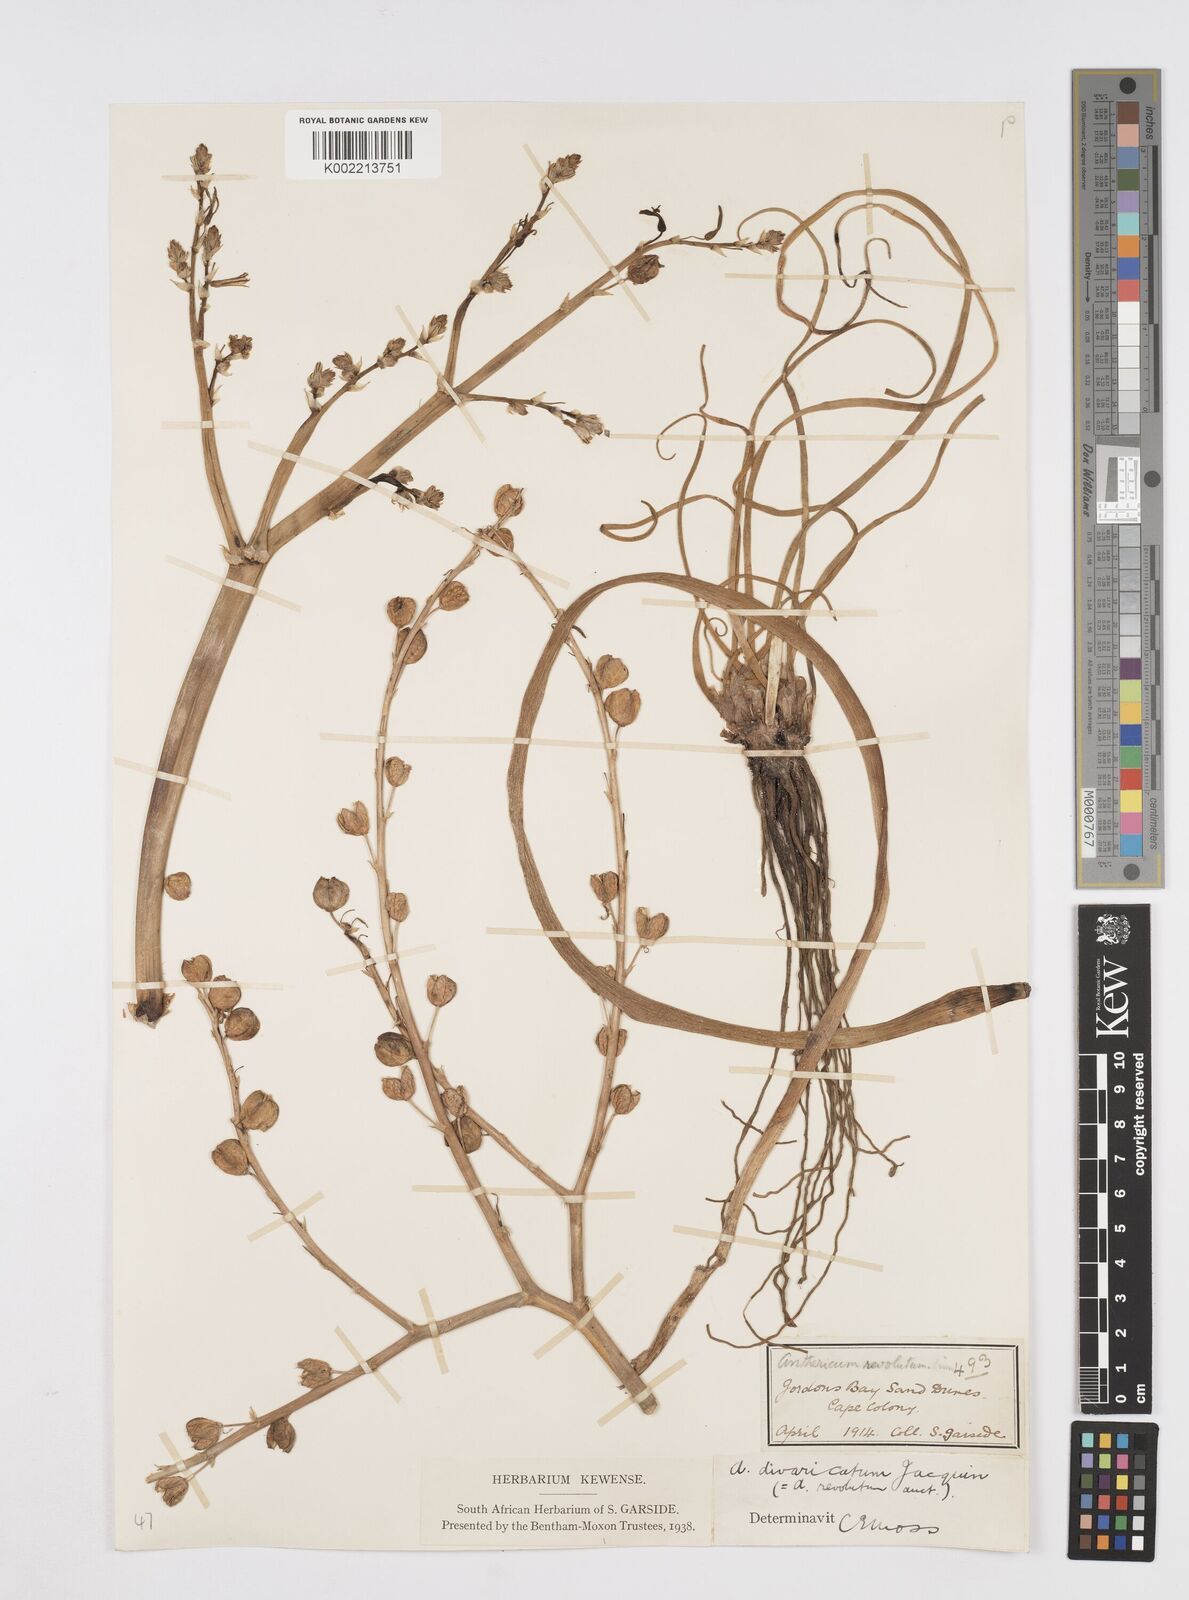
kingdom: Plantae
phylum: Tracheophyta
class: Liliopsida
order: Asparagales
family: Asphodelaceae
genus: Trachyandra
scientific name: Trachyandra divaricata
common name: Dune onionweed
